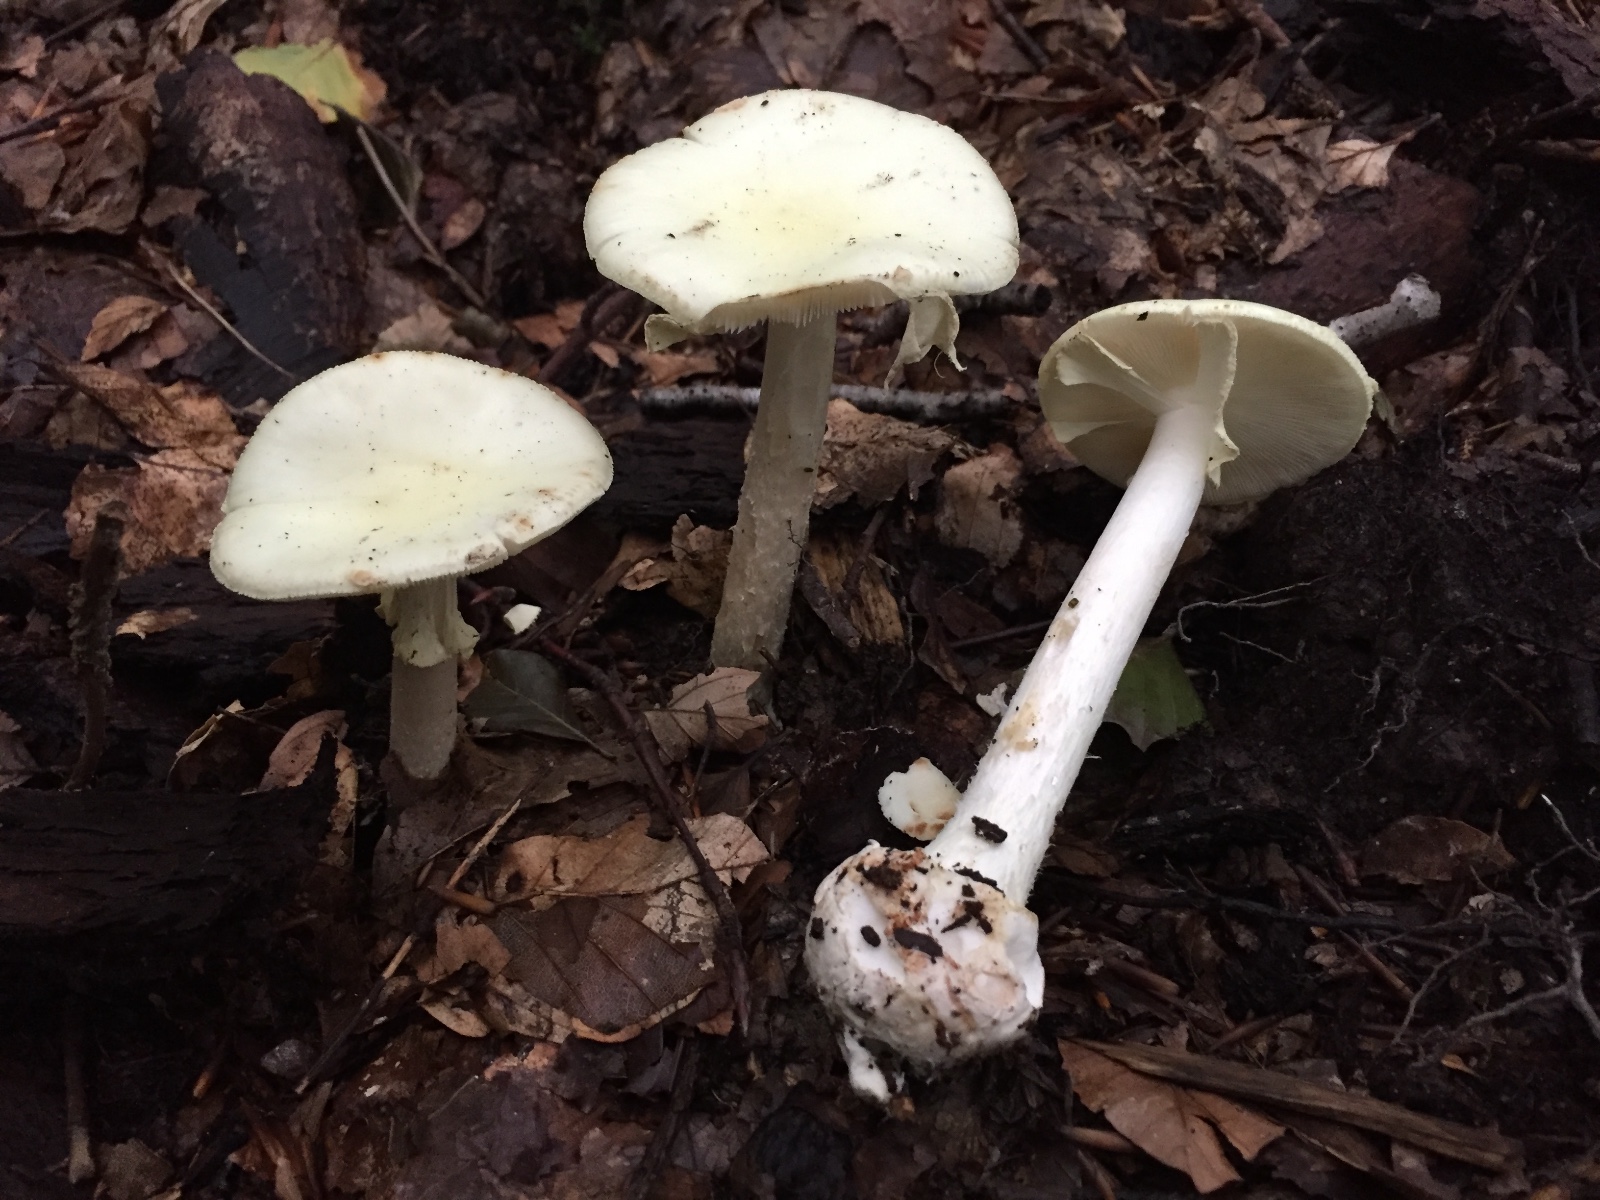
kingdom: Fungi
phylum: Basidiomycota
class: Agaricomycetes
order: Agaricales
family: Amanitaceae
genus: Amanita
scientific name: Amanita citrina
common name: kugleknoldet fluesvamp
